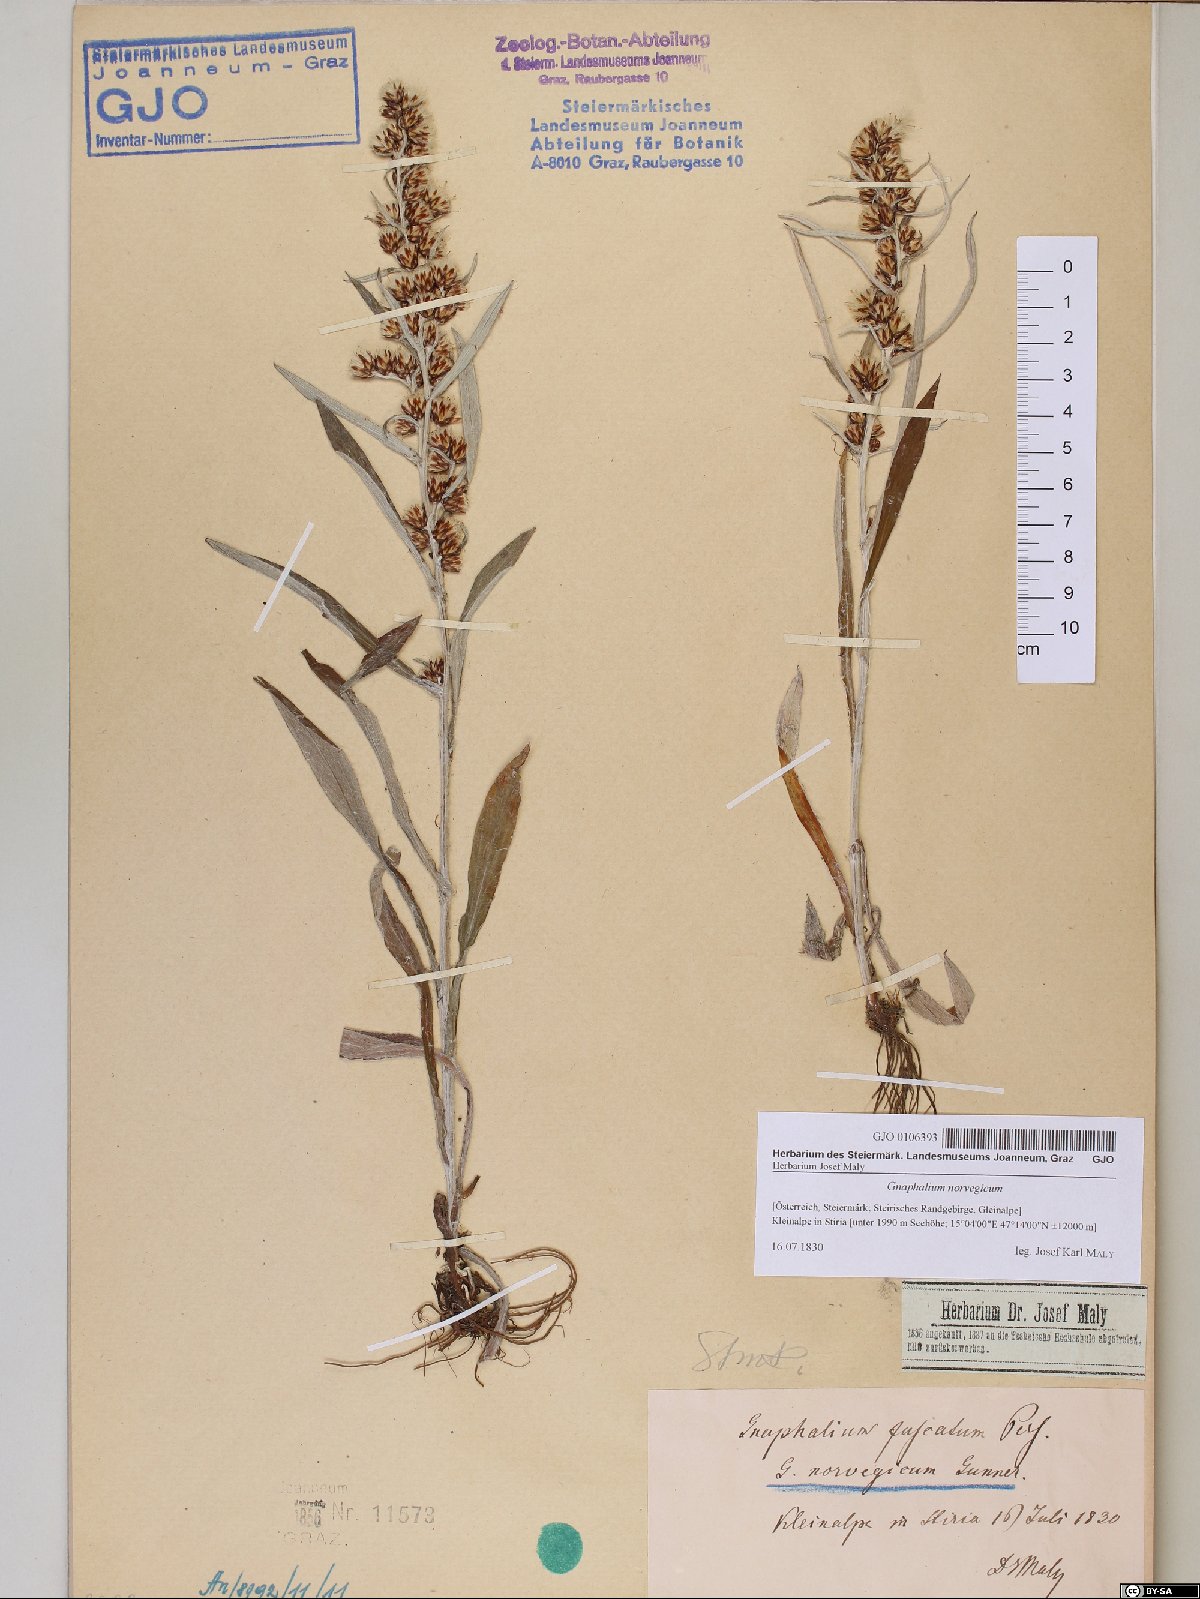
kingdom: Plantae
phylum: Tracheophyta
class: Magnoliopsida
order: Asterales
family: Asteraceae
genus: Omalotheca
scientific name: Omalotheca norvegica
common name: Norwegian arctic-cudweed
